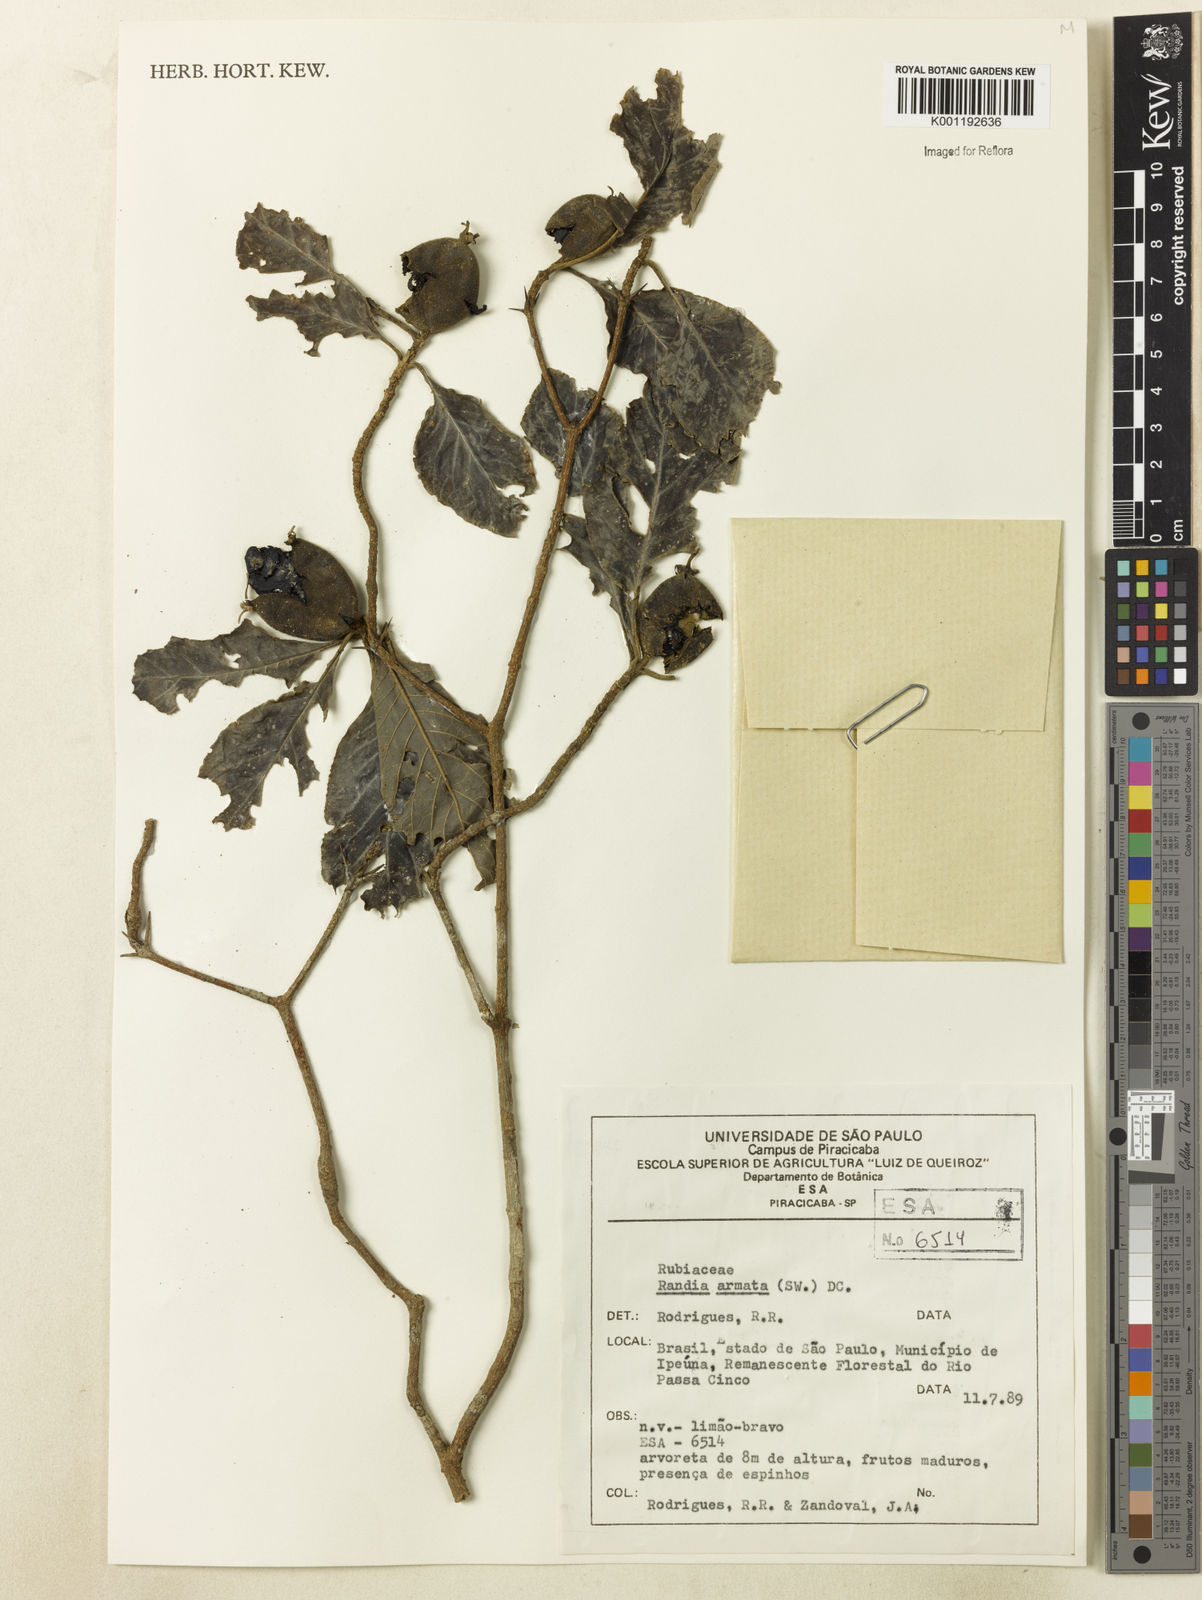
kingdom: Plantae
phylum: Tracheophyta
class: Magnoliopsida
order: Gentianales
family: Rubiaceae
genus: Randia
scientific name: Randia armata
